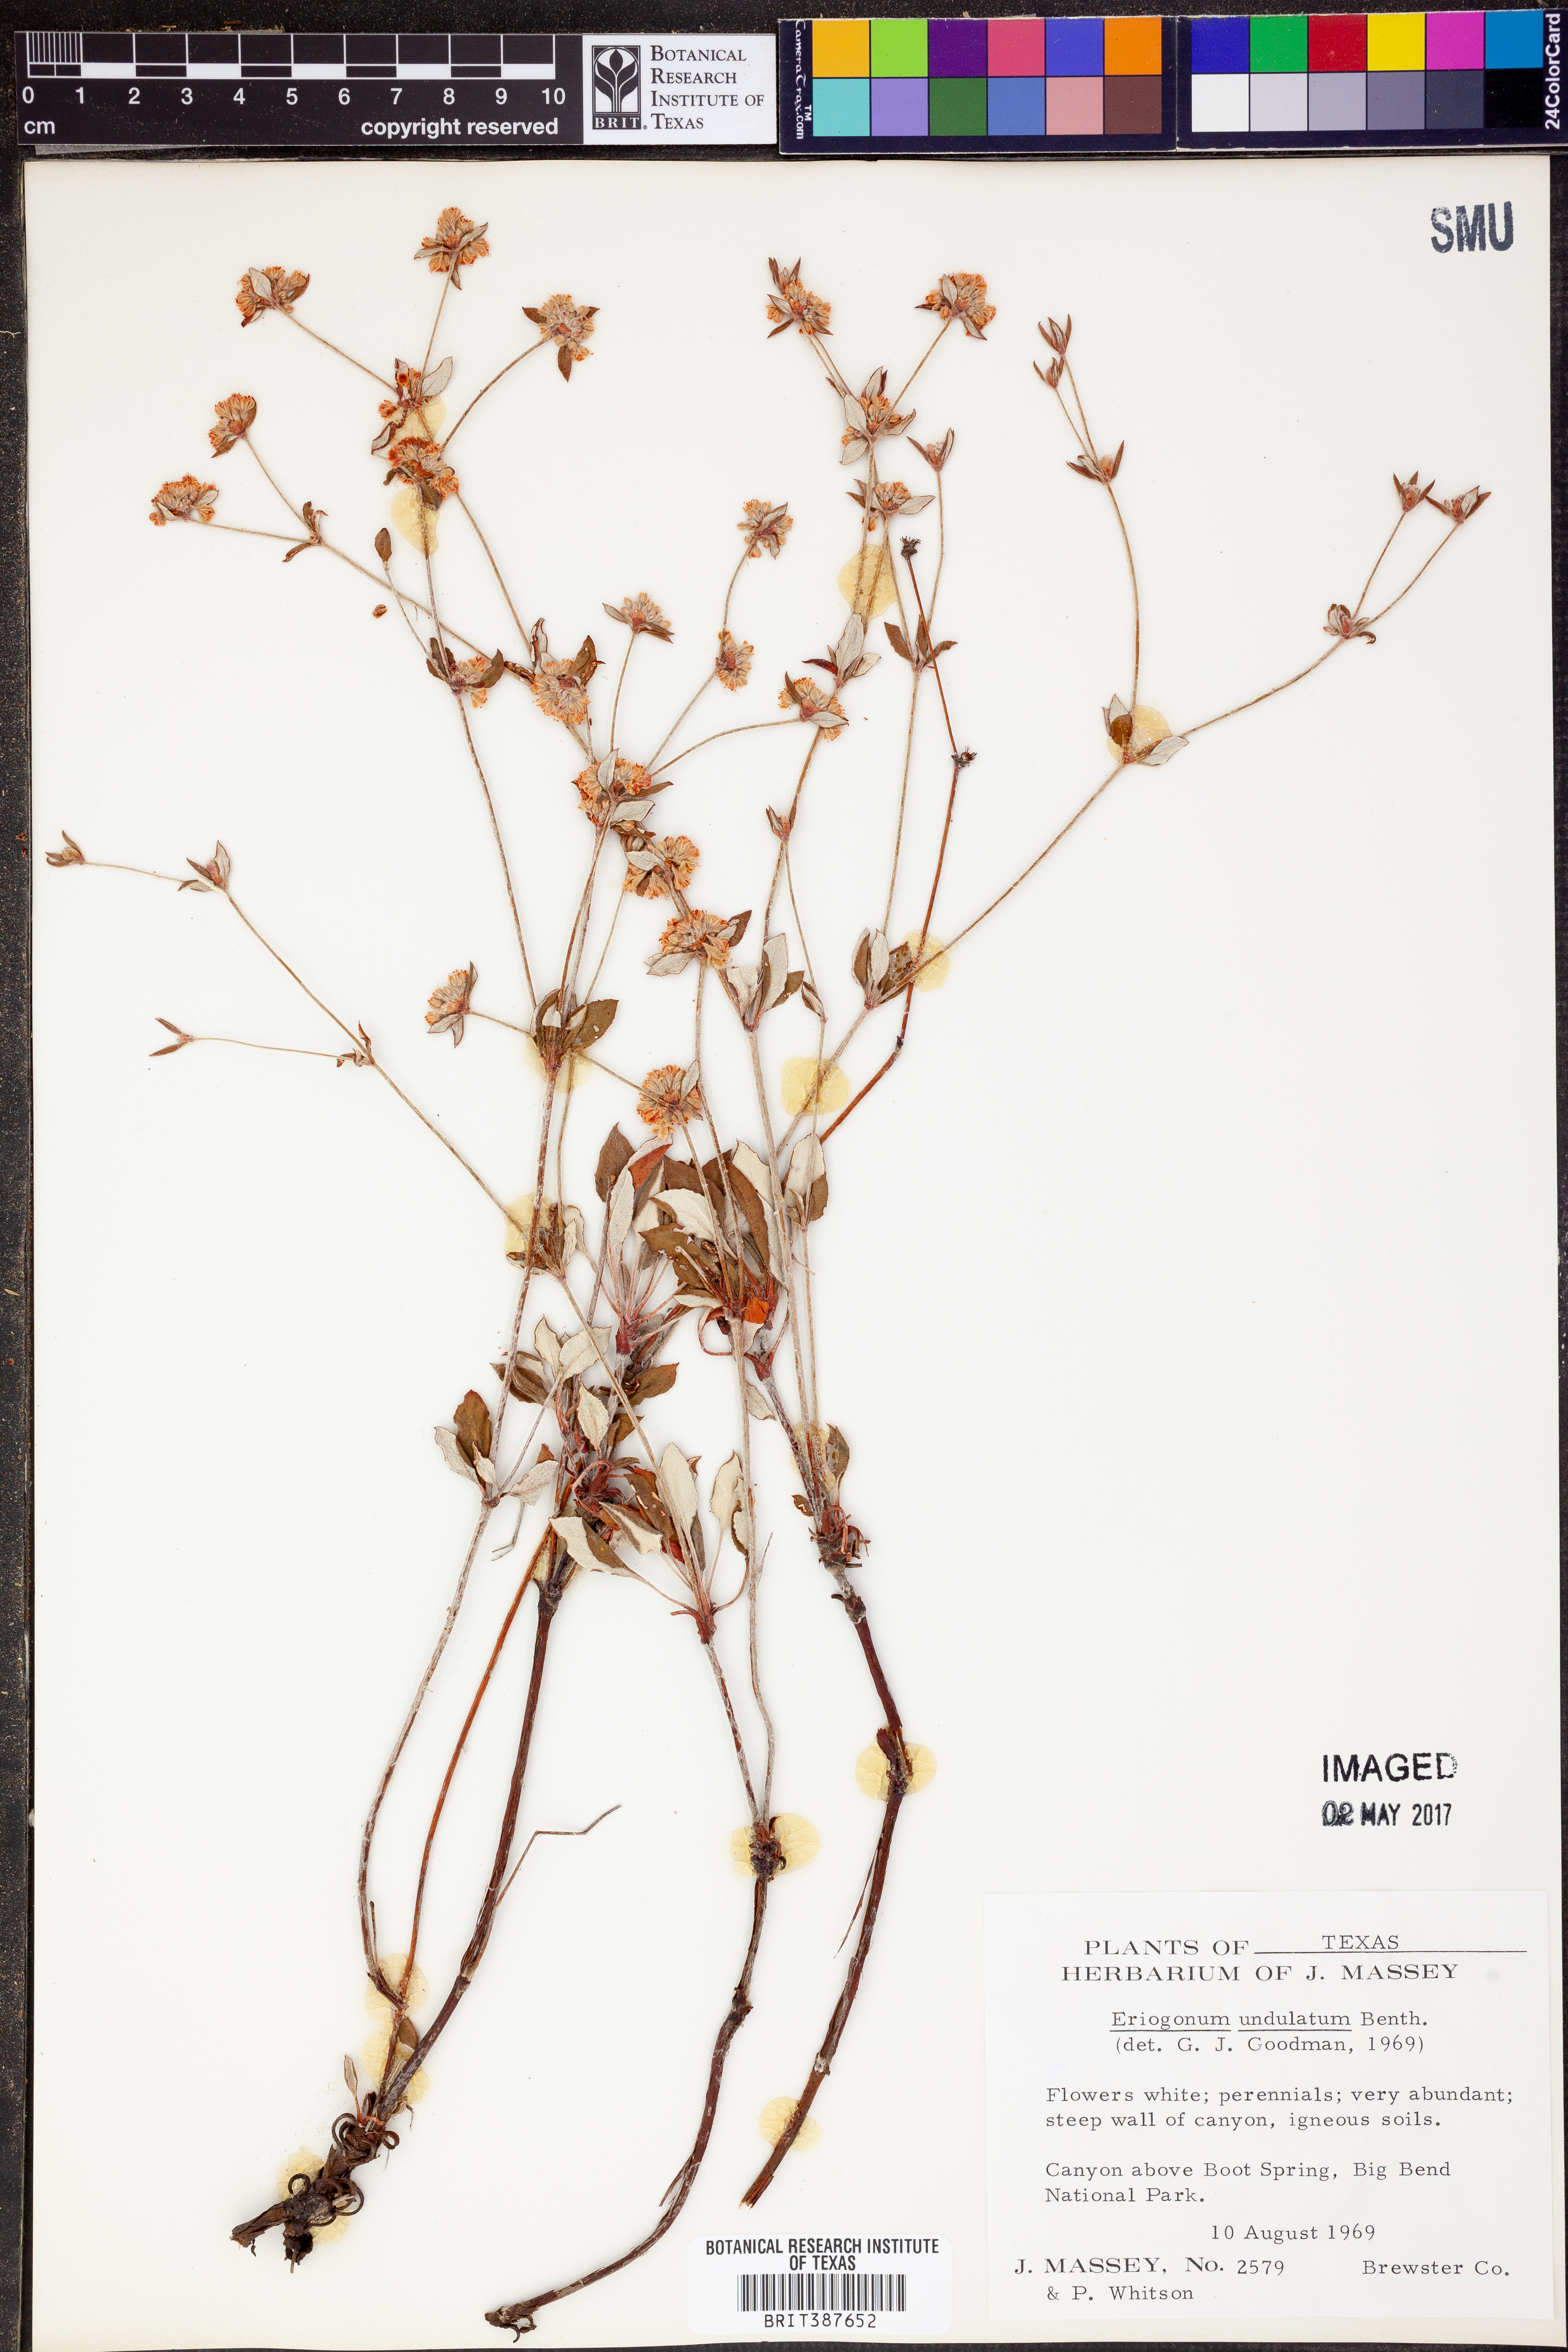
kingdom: Plantae
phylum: Tracheophyta
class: Magnoliopsida
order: Caryophyllales
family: Polygonaceae
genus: Eriogonum
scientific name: Eriogonum jamesii
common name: Antelope-sage
